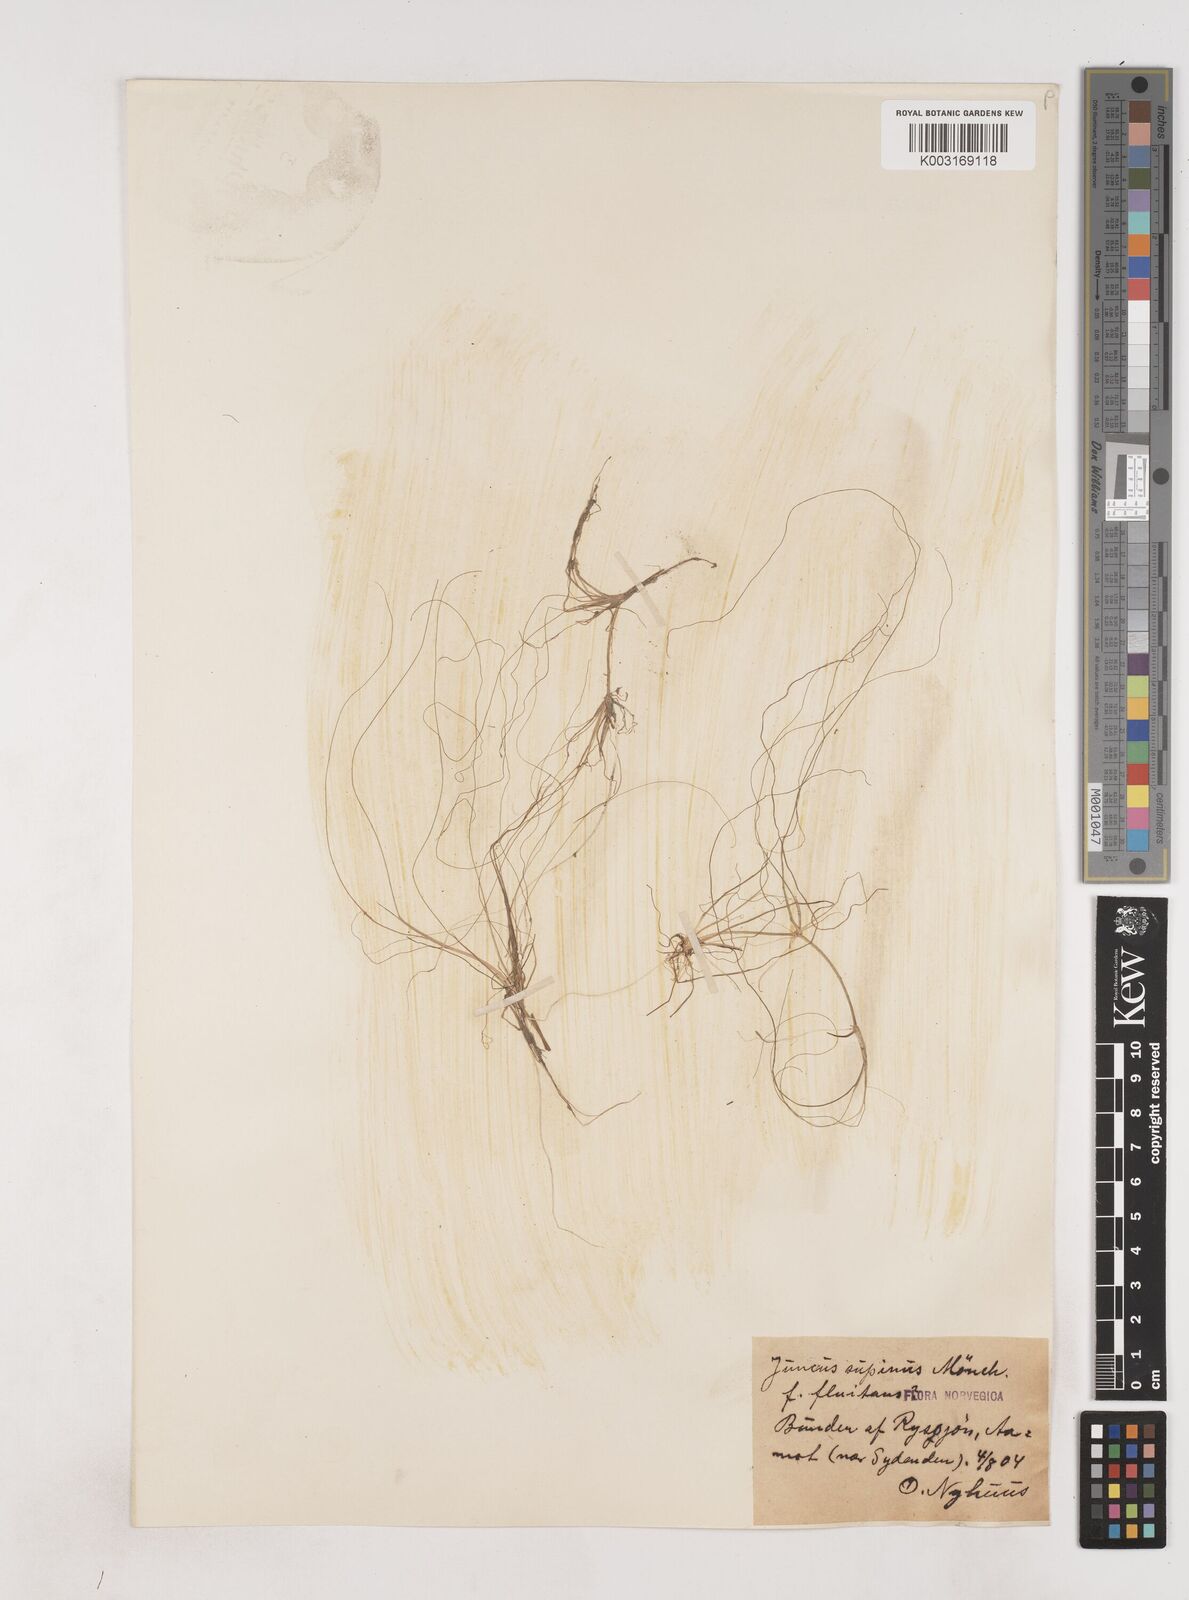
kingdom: Plantae
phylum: Tracheophyta
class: Liliopsida
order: Poales
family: Juncaceae
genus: Juncus
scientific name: Juncus bulbosus
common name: Bulbous rush
